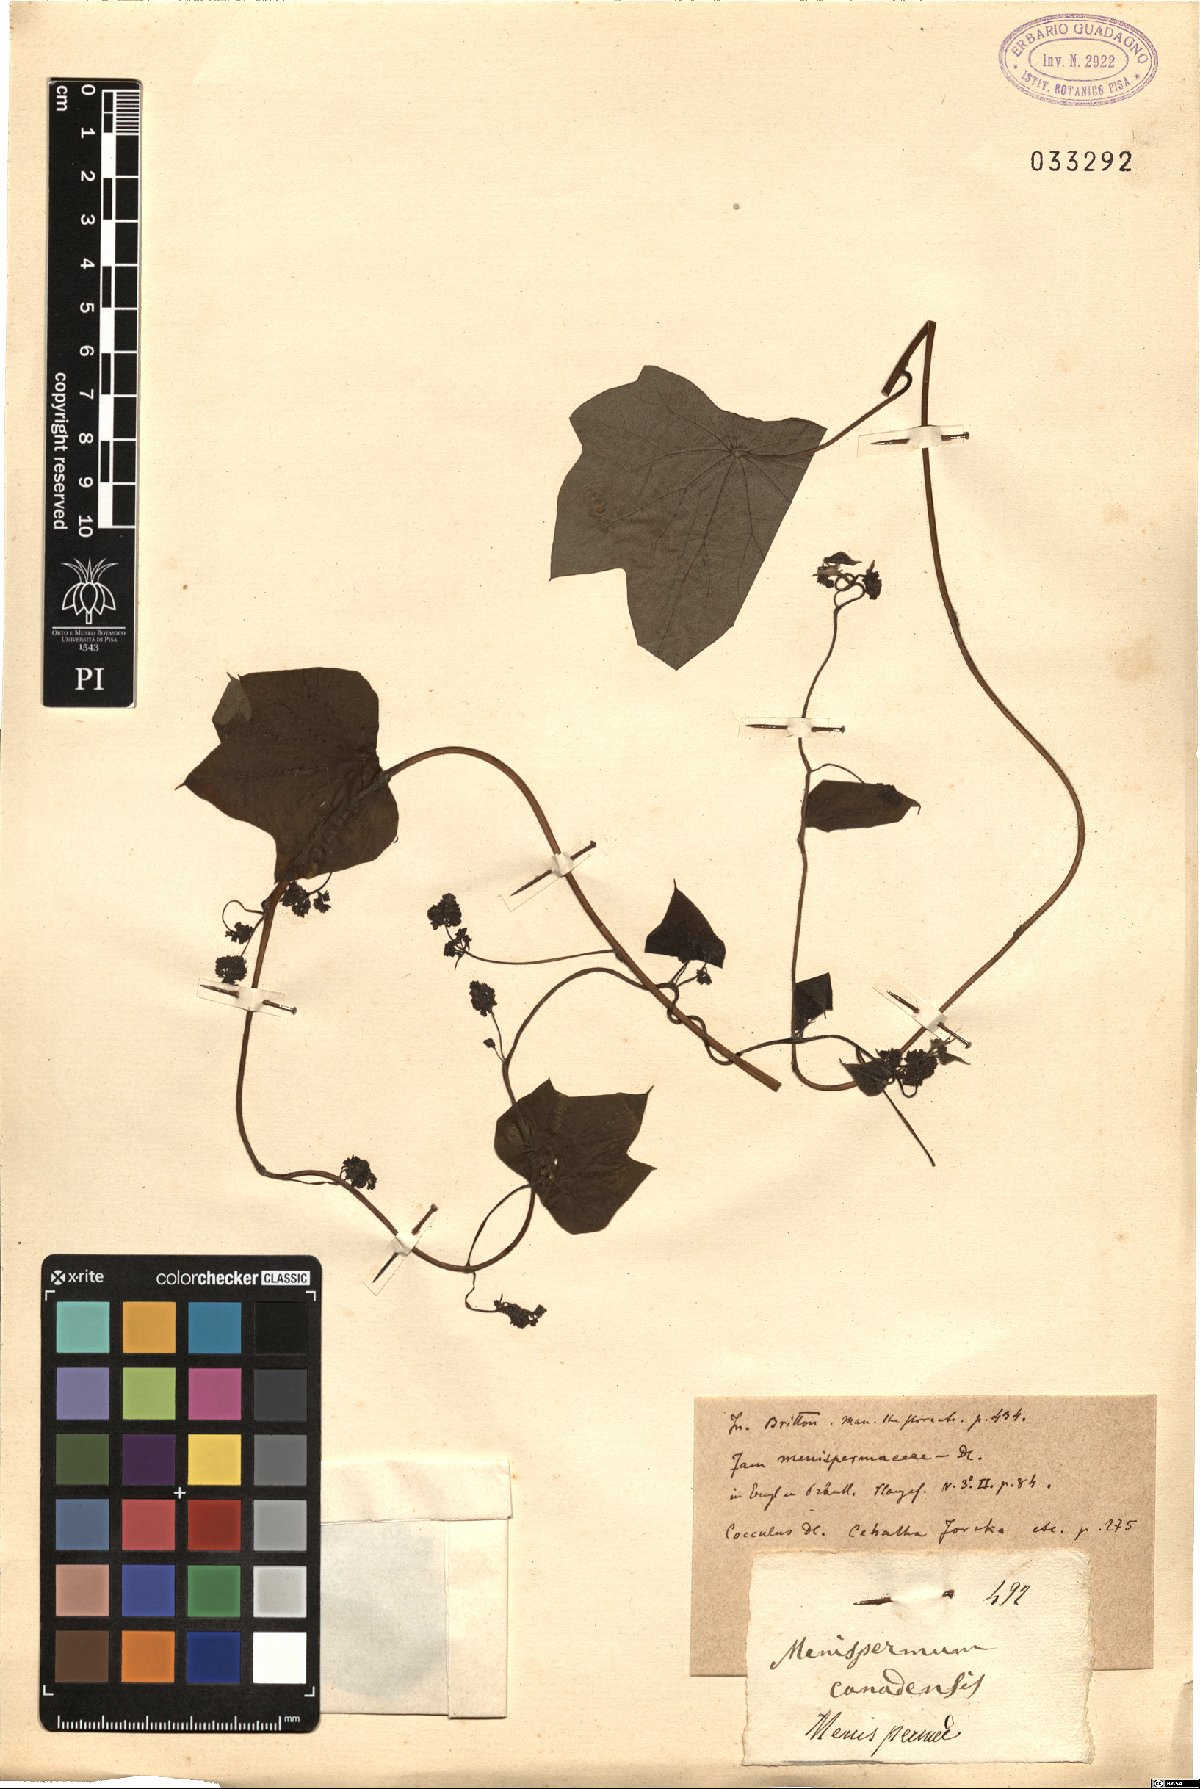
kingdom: Plantae
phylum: Tracheophyta
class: Magnoliopsida
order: Ranunculales
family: Menispermaceae
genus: Menispermum
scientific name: Menispermum canadense
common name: Moonseed
